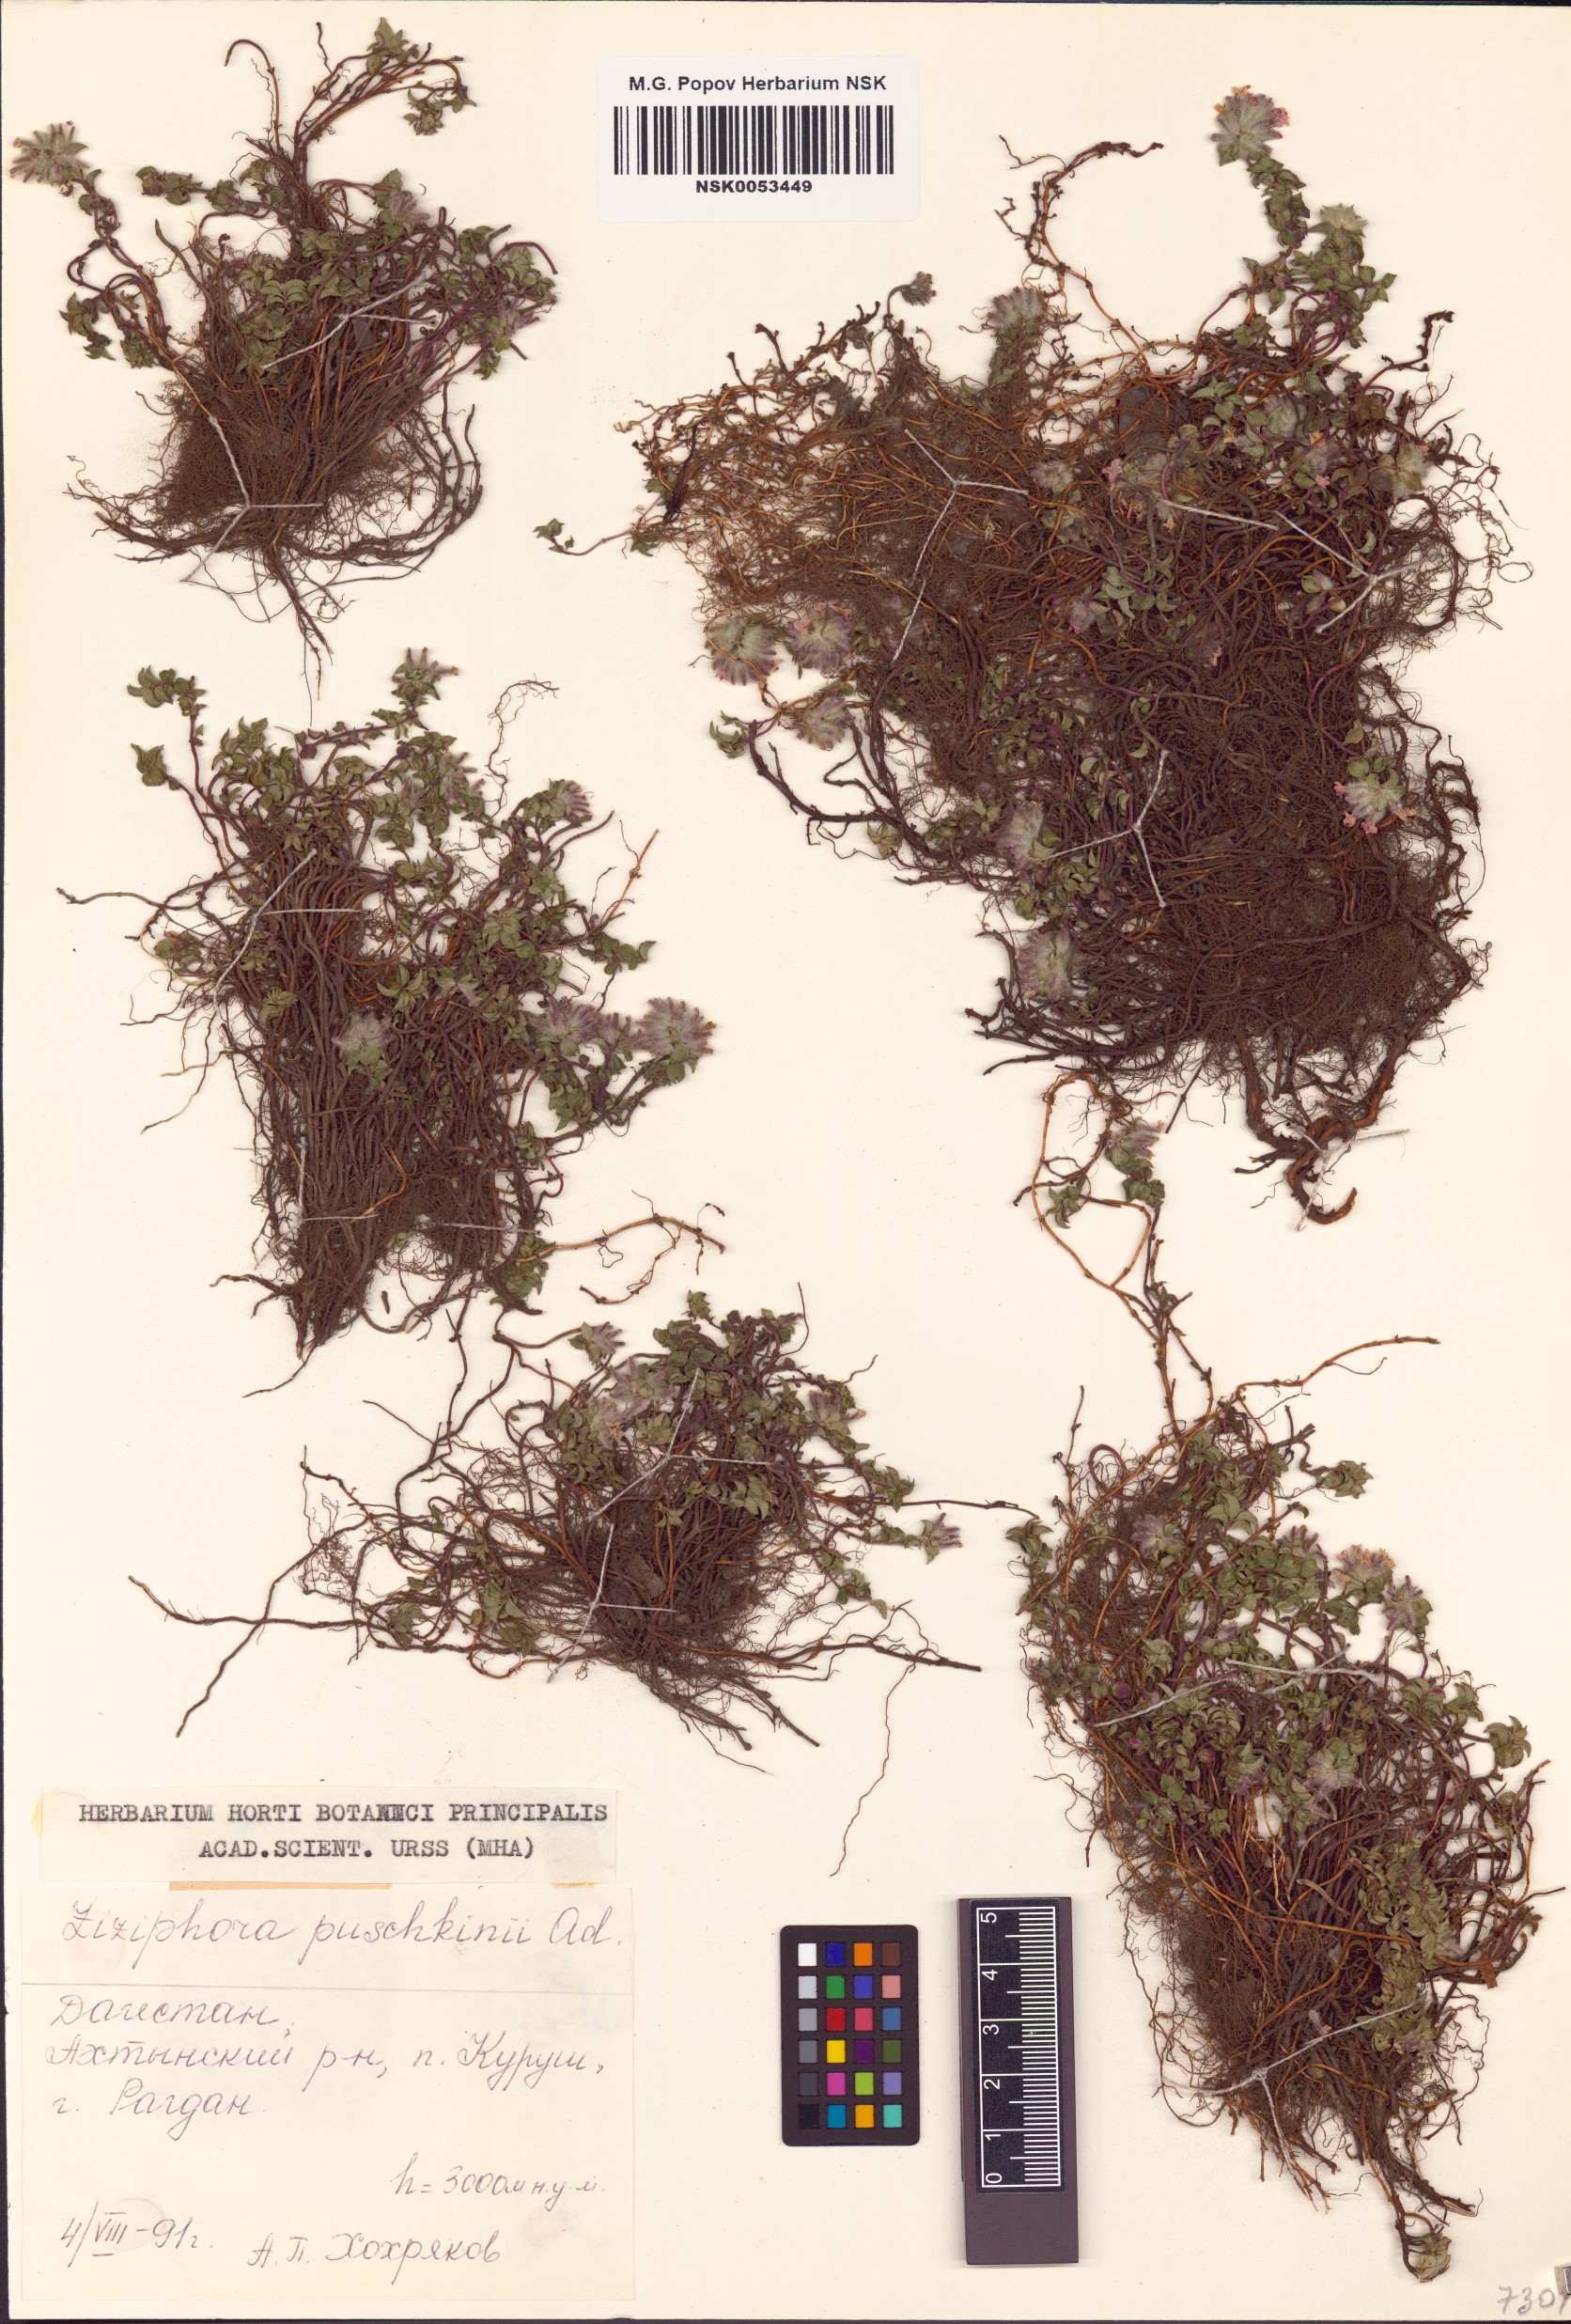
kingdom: Plantae
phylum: Tracheophyta
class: Magnoliopsida
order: Lamiales
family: Lamiaceae
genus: Ziziphora
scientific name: Ziziphora puschkinii
